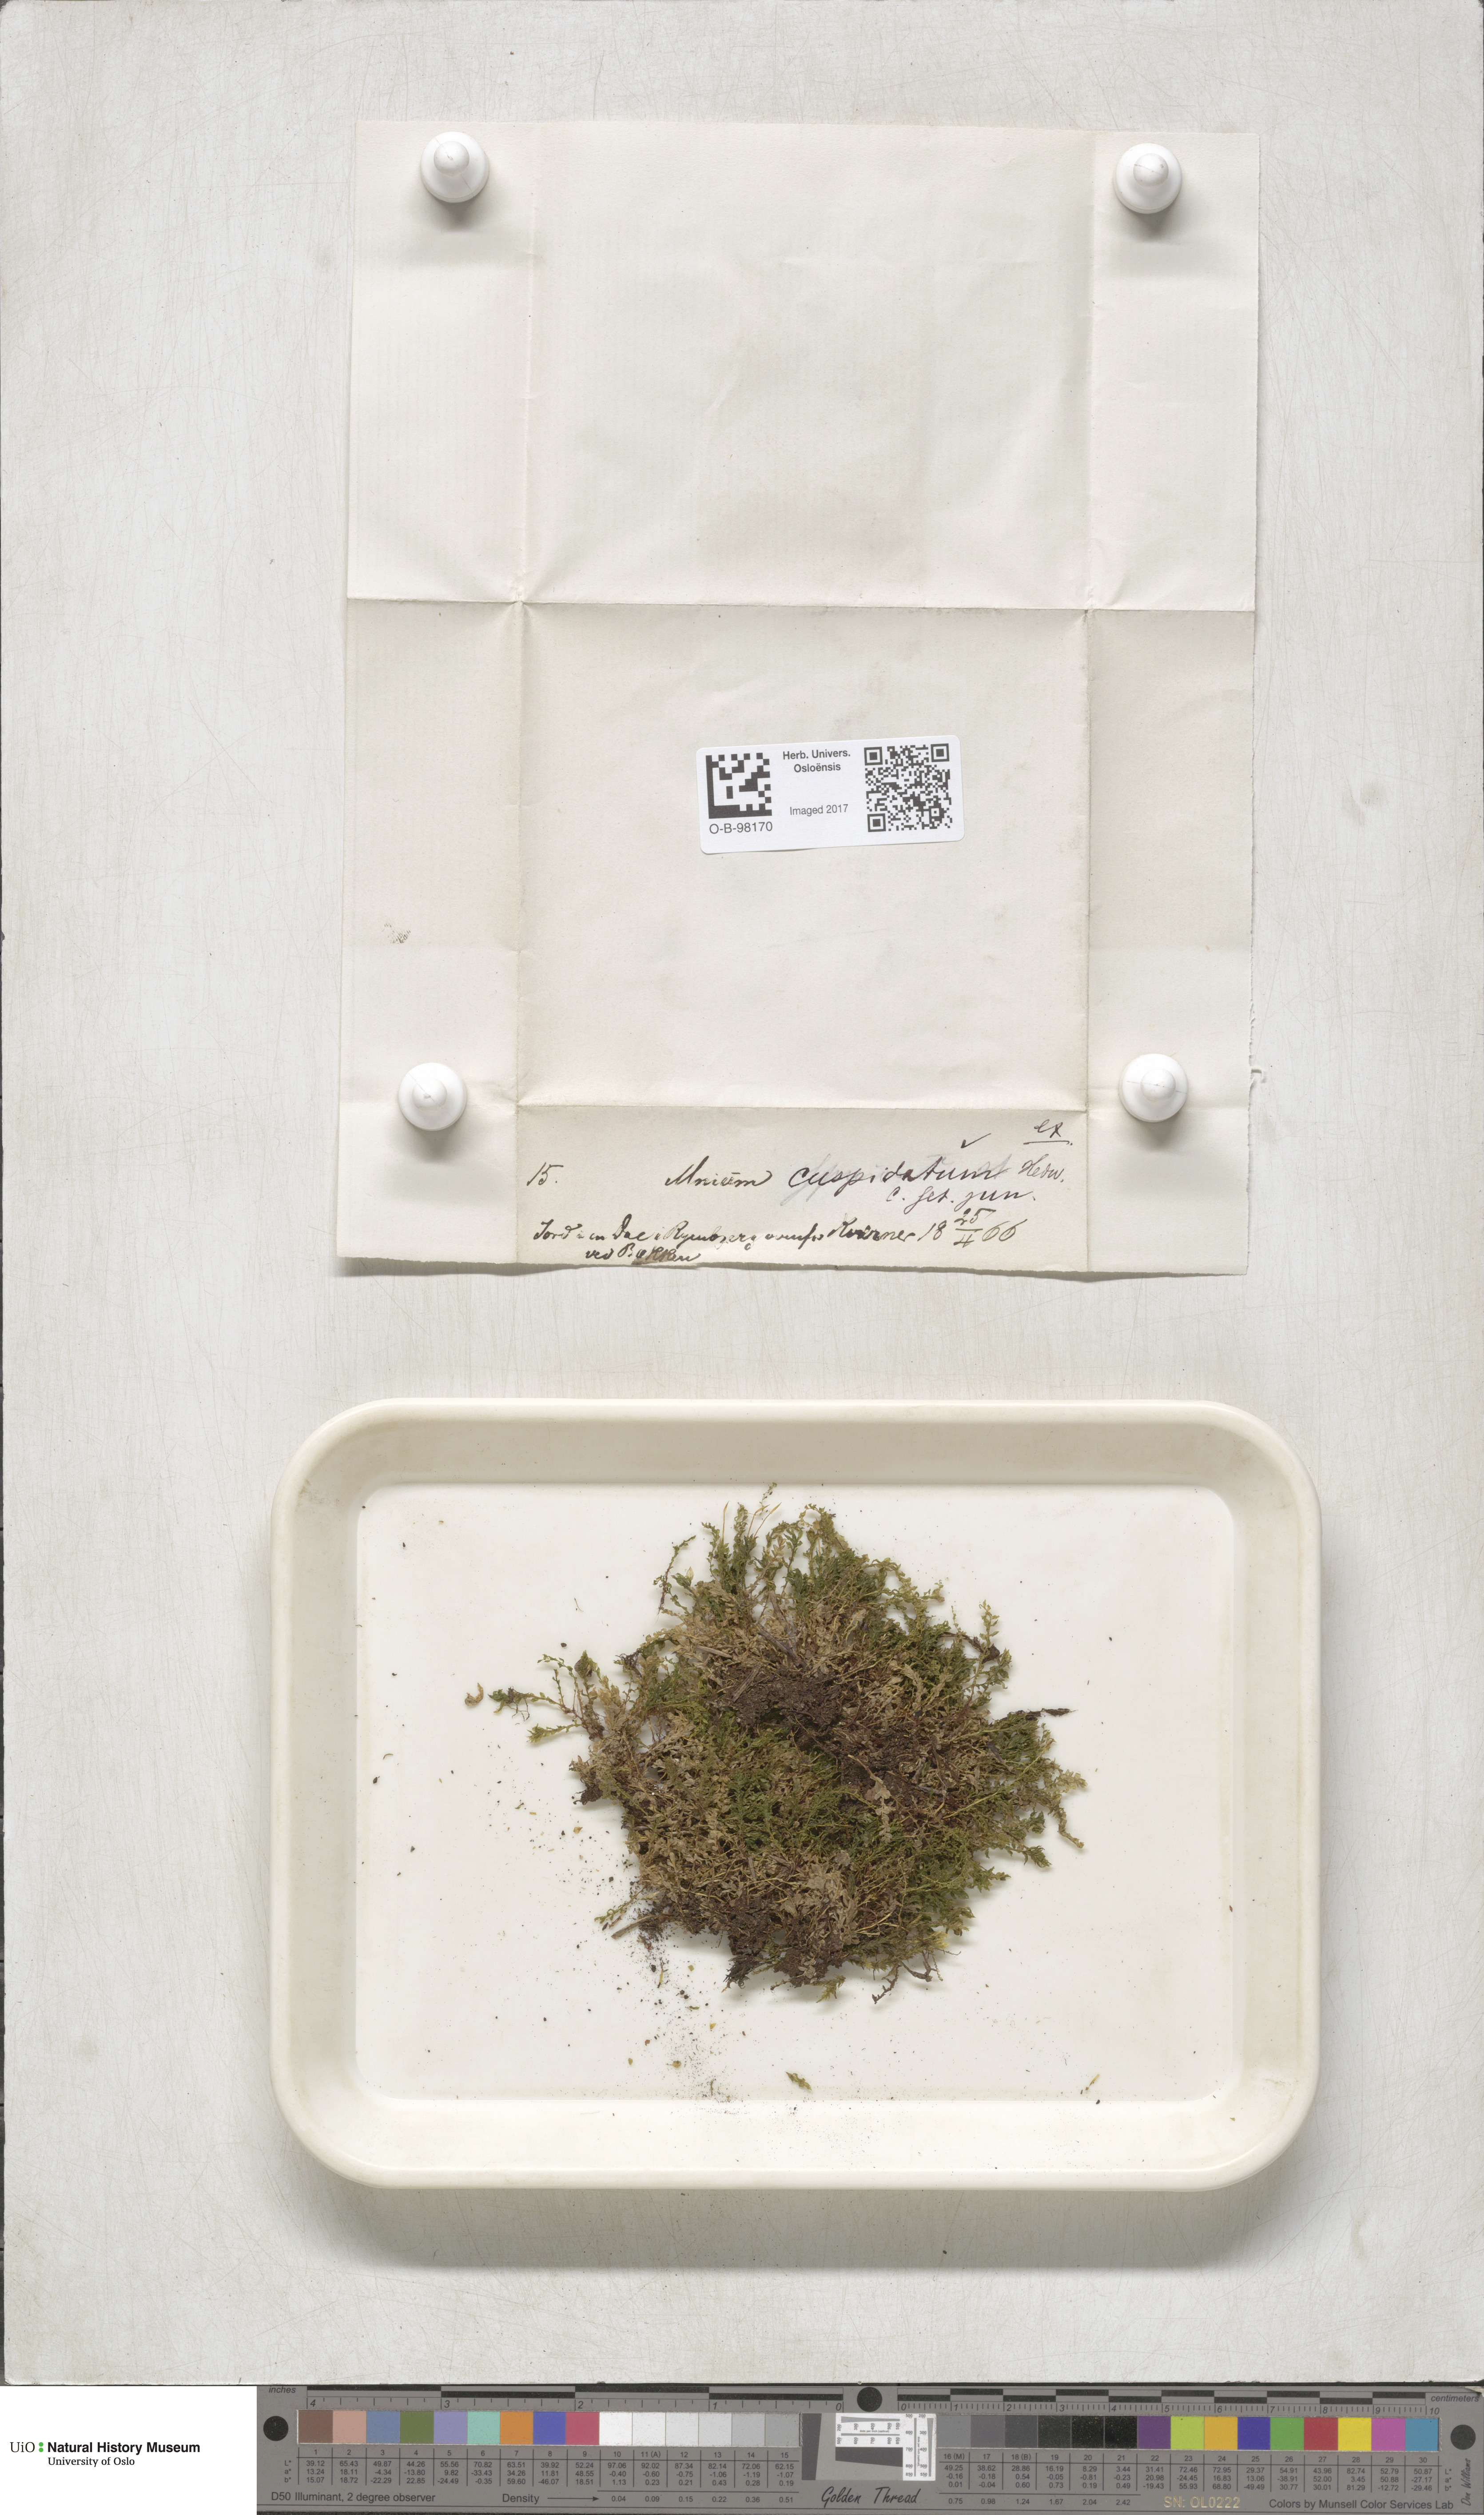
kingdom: Plantae
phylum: Bryophyta
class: Bryopsida
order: Bryales
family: Mniaceae
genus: Plagiomnium
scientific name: Plagiomnium cuspidatum
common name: Woodsy leafy moss
